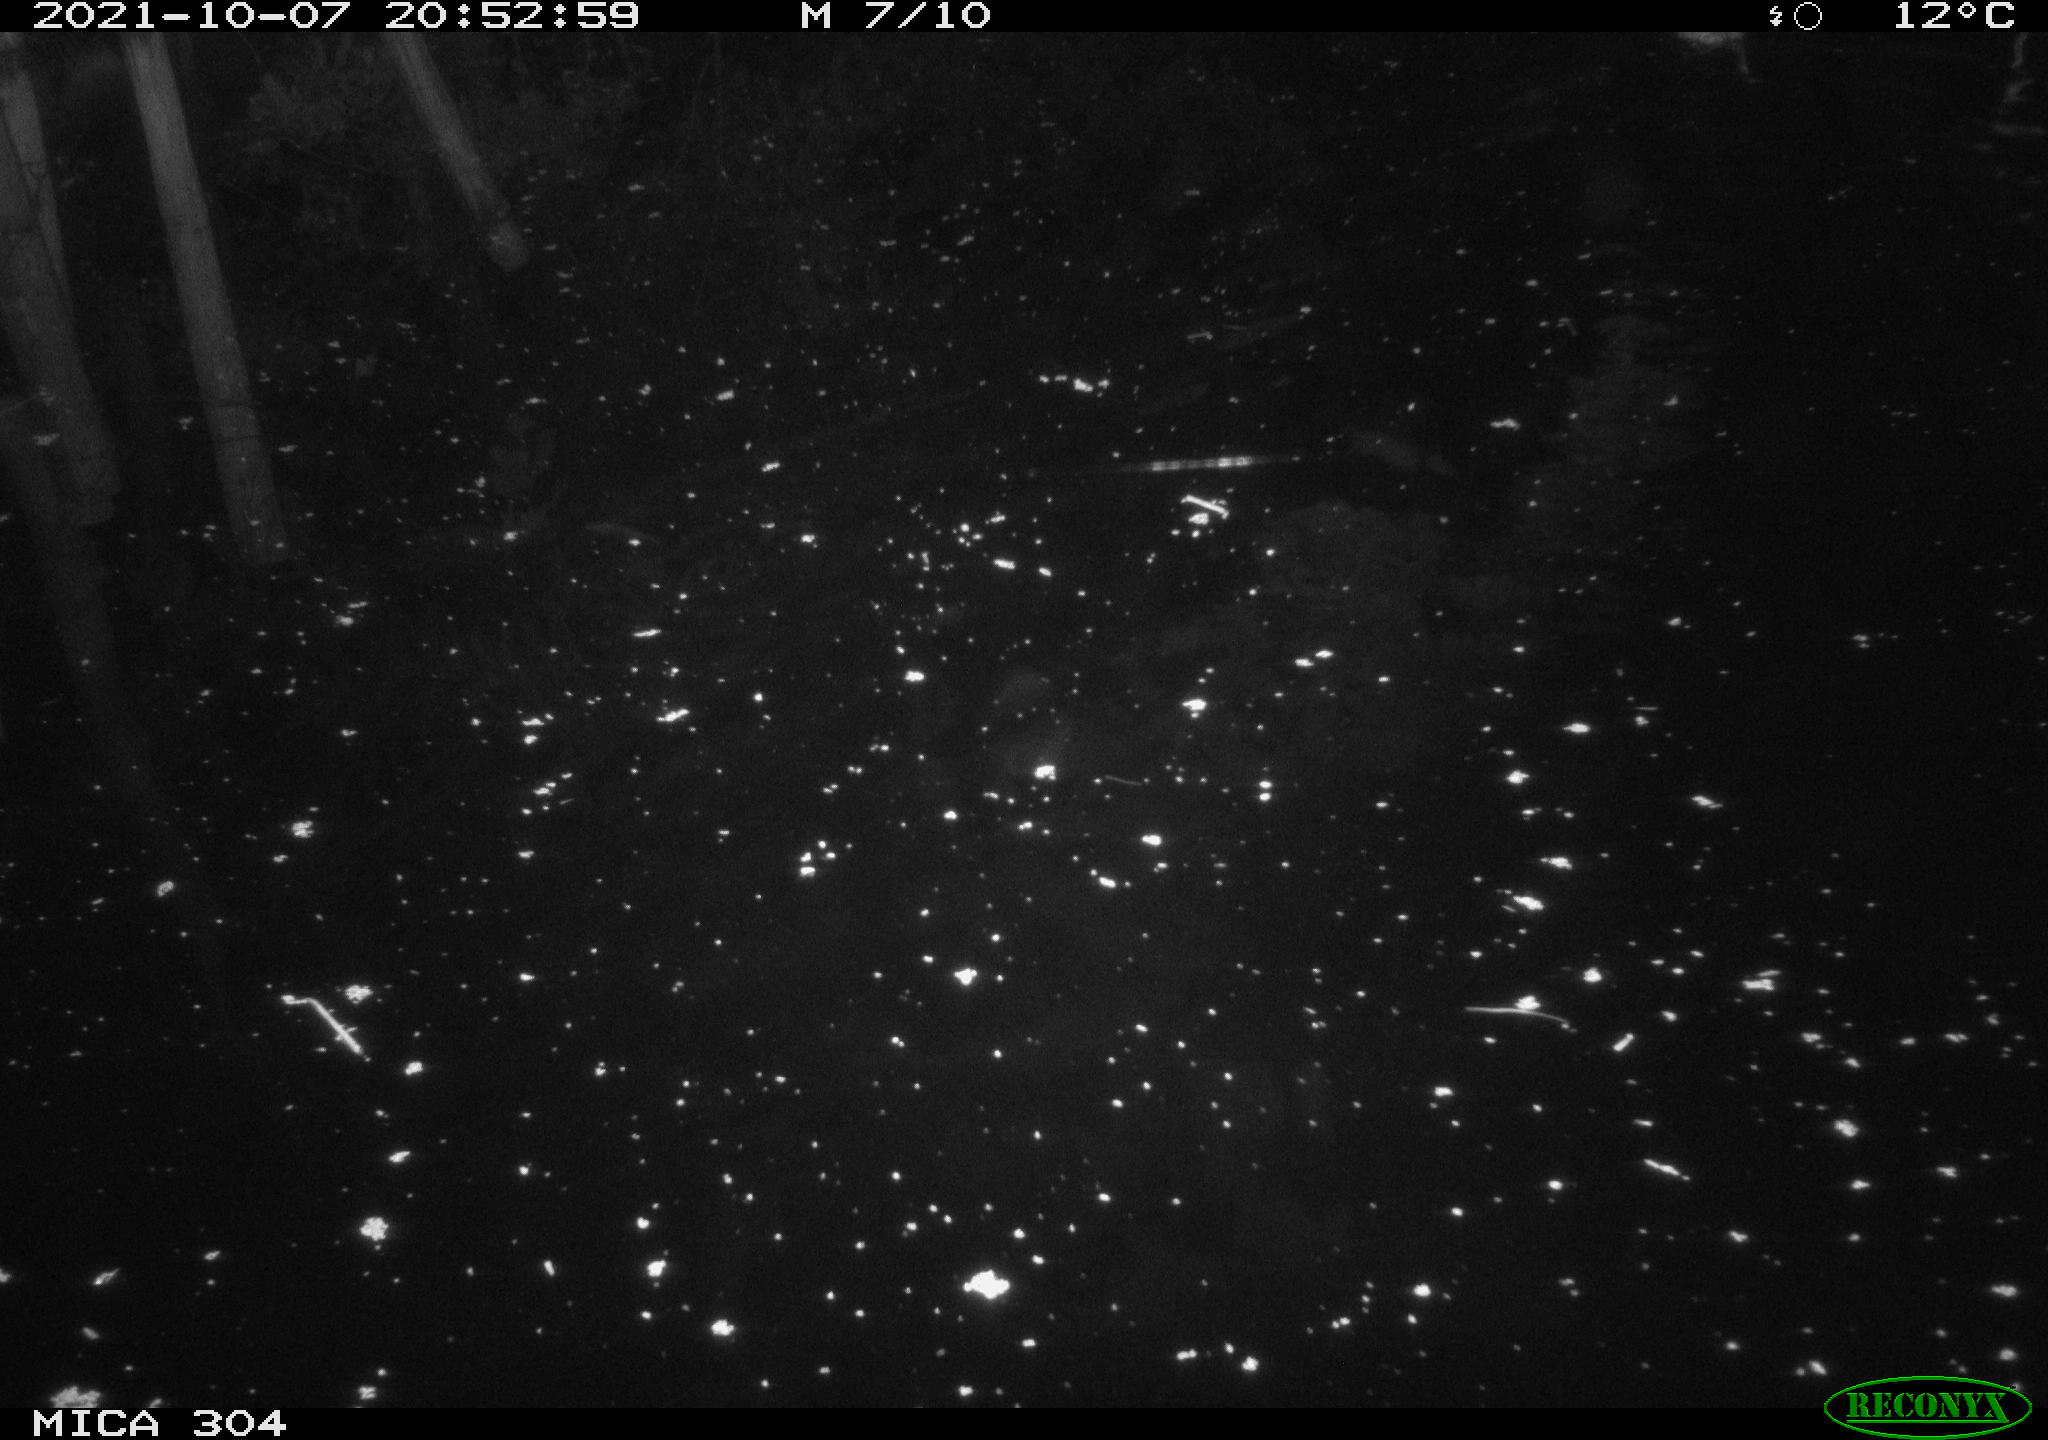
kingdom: Animalia
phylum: Chordata
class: Mammalia
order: Rodentia
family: Cricetidae
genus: Ondatra
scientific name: Ondatra zibethicus
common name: Muskrat
